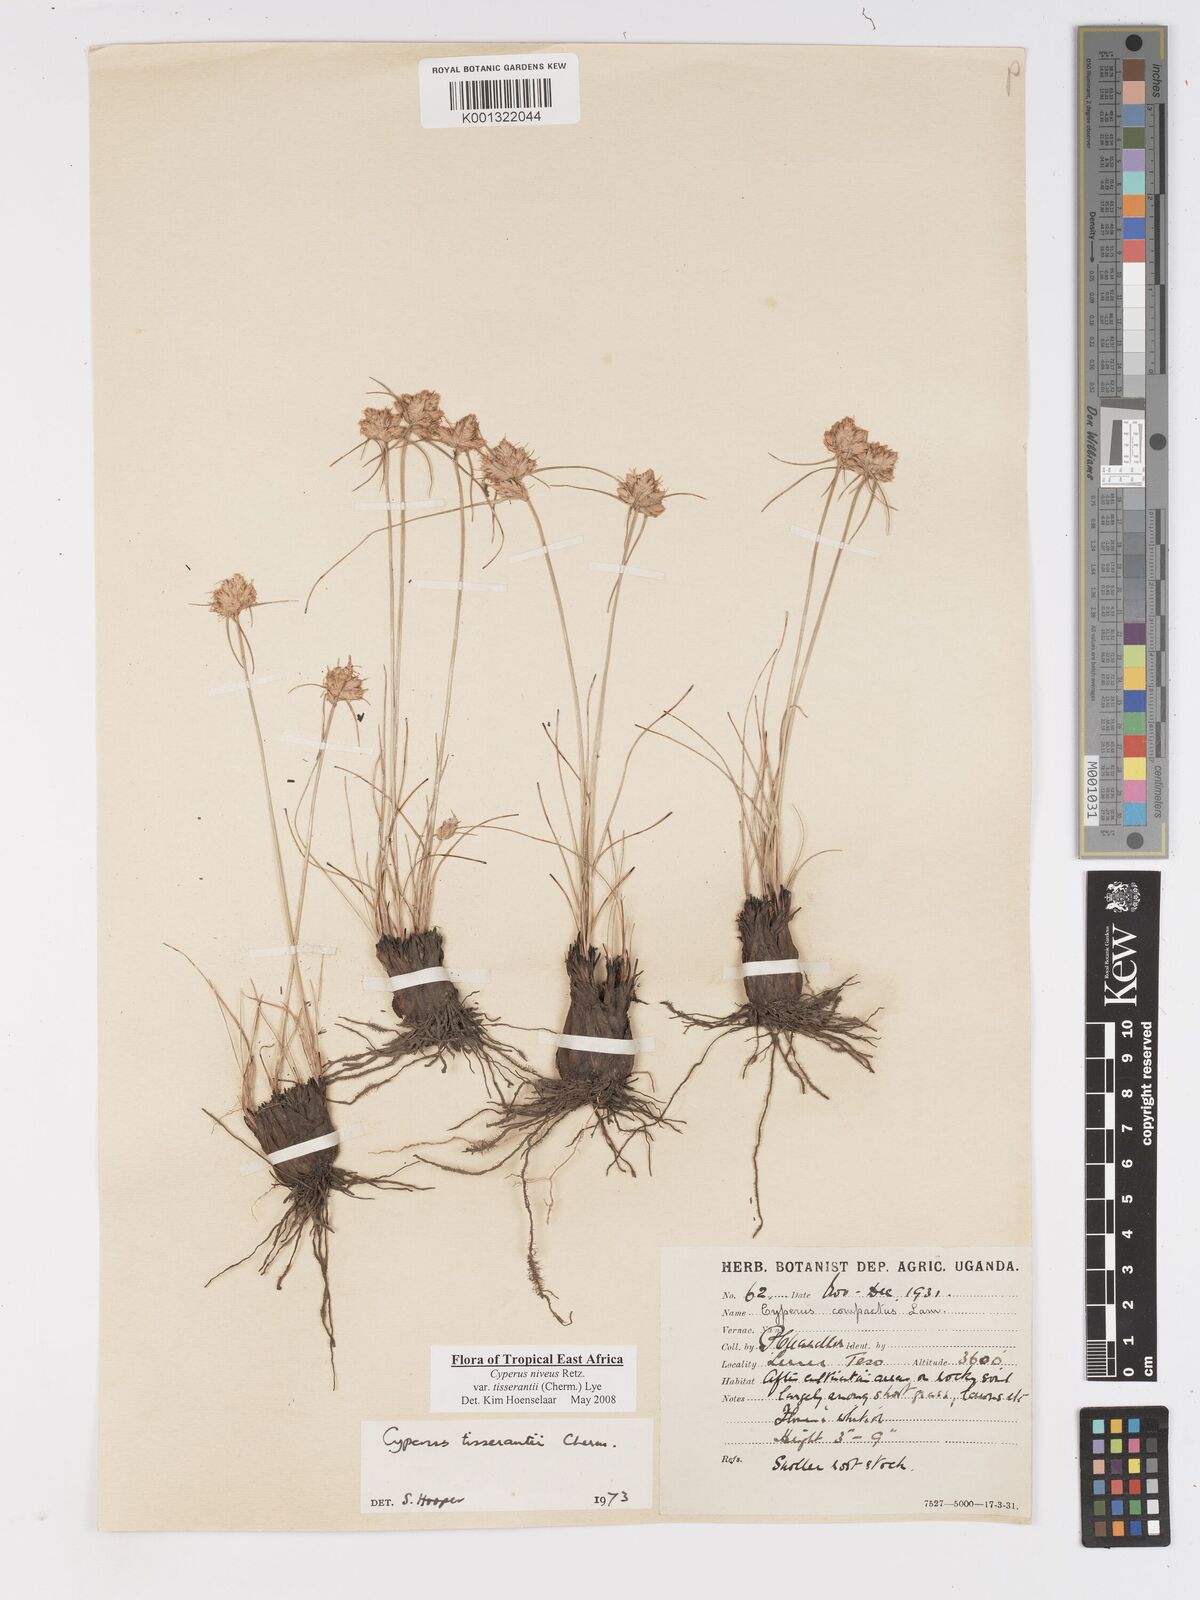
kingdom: Plantae
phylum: Tracheophyta
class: Liliopsida
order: Poales
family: Cyperaceae
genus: Cyperus
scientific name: Cyperus niveus
